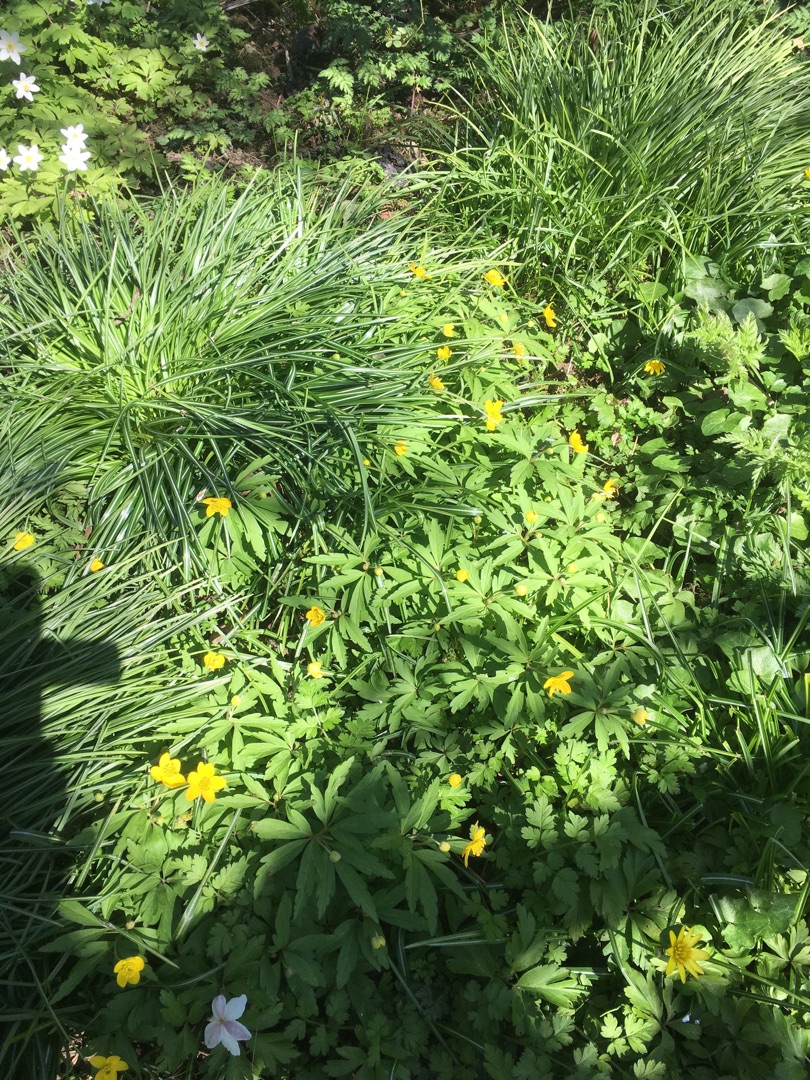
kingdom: Plantae
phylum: Tracheophyta
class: Magnoliopsida
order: Ranunculales
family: Ranunculaceae
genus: Anemone
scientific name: Anemone ranunculoides
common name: Gul anemone
